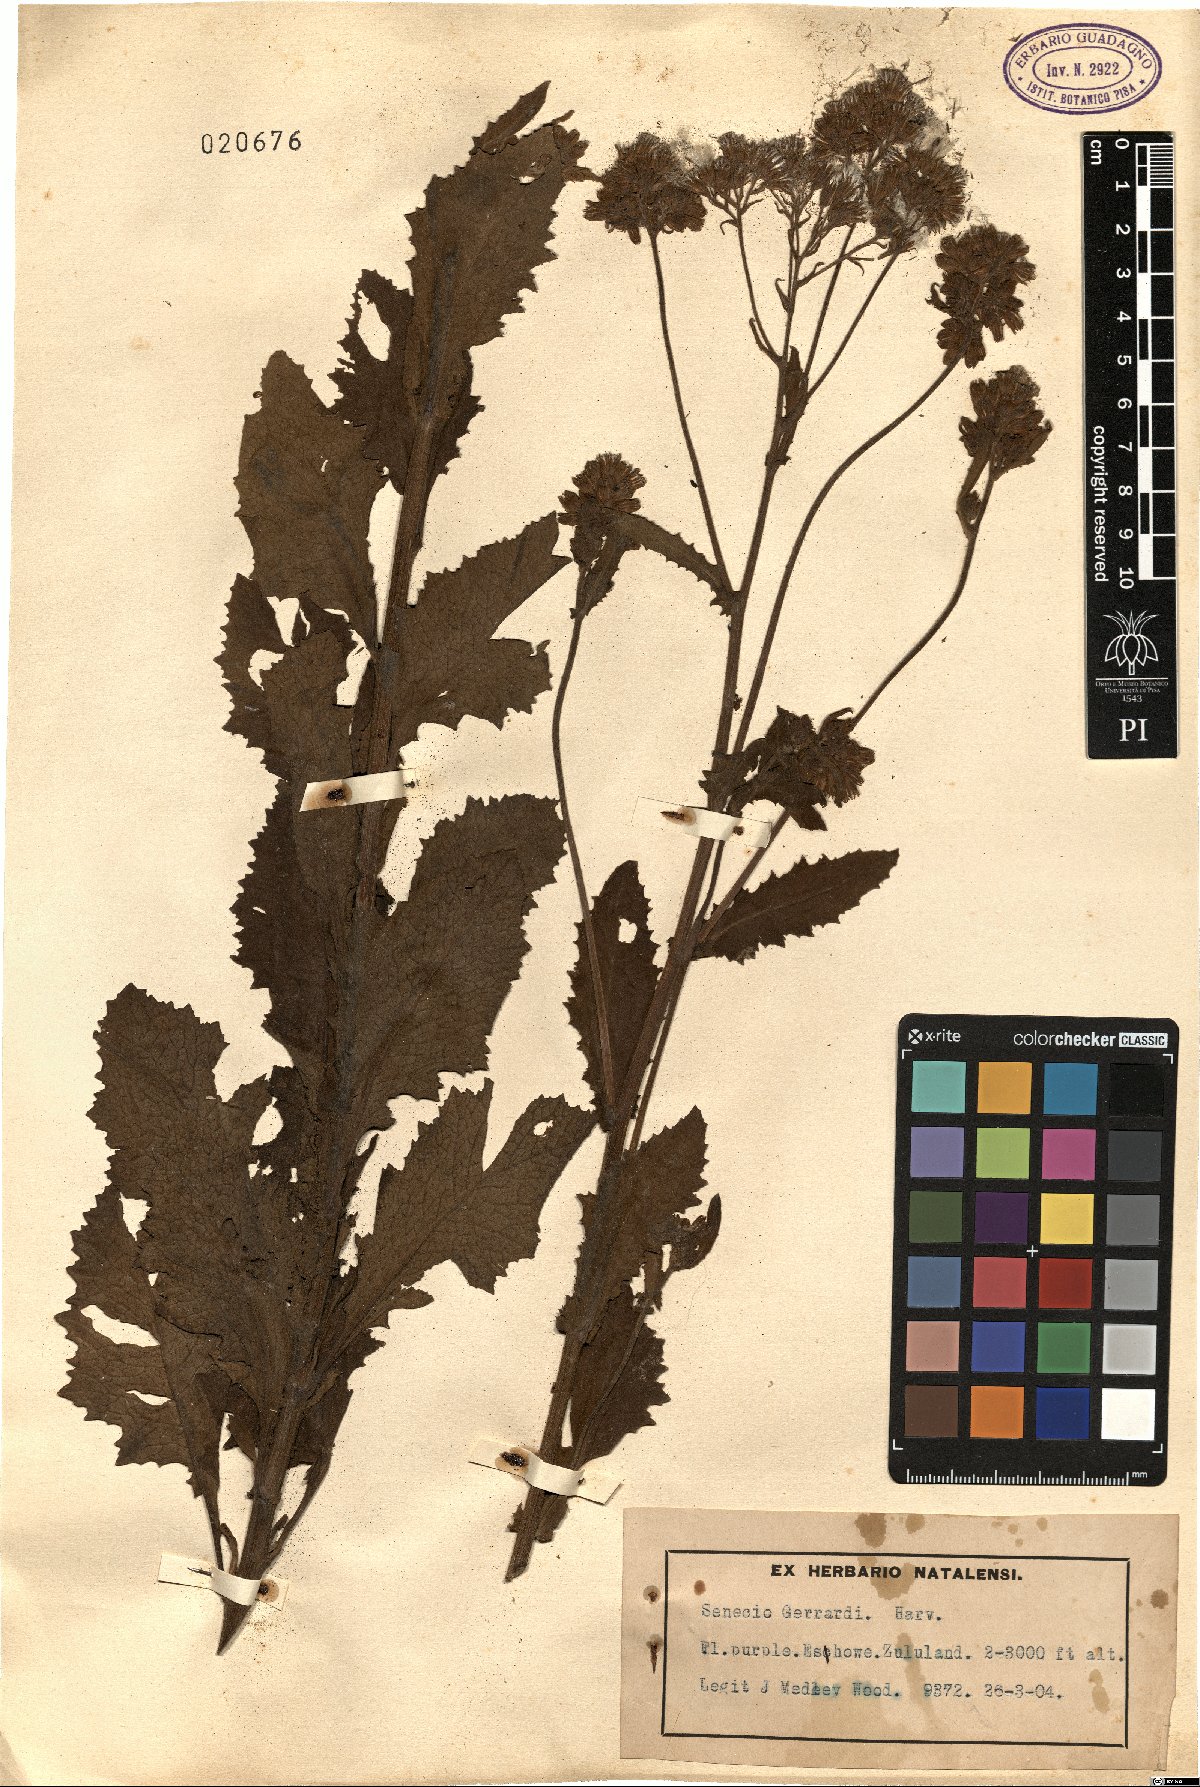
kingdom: Plantae
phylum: Tracheophyta
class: Magnoliopsida
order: Asterales
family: Asteraceae
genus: Senecio
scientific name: Senecio gerrardii
